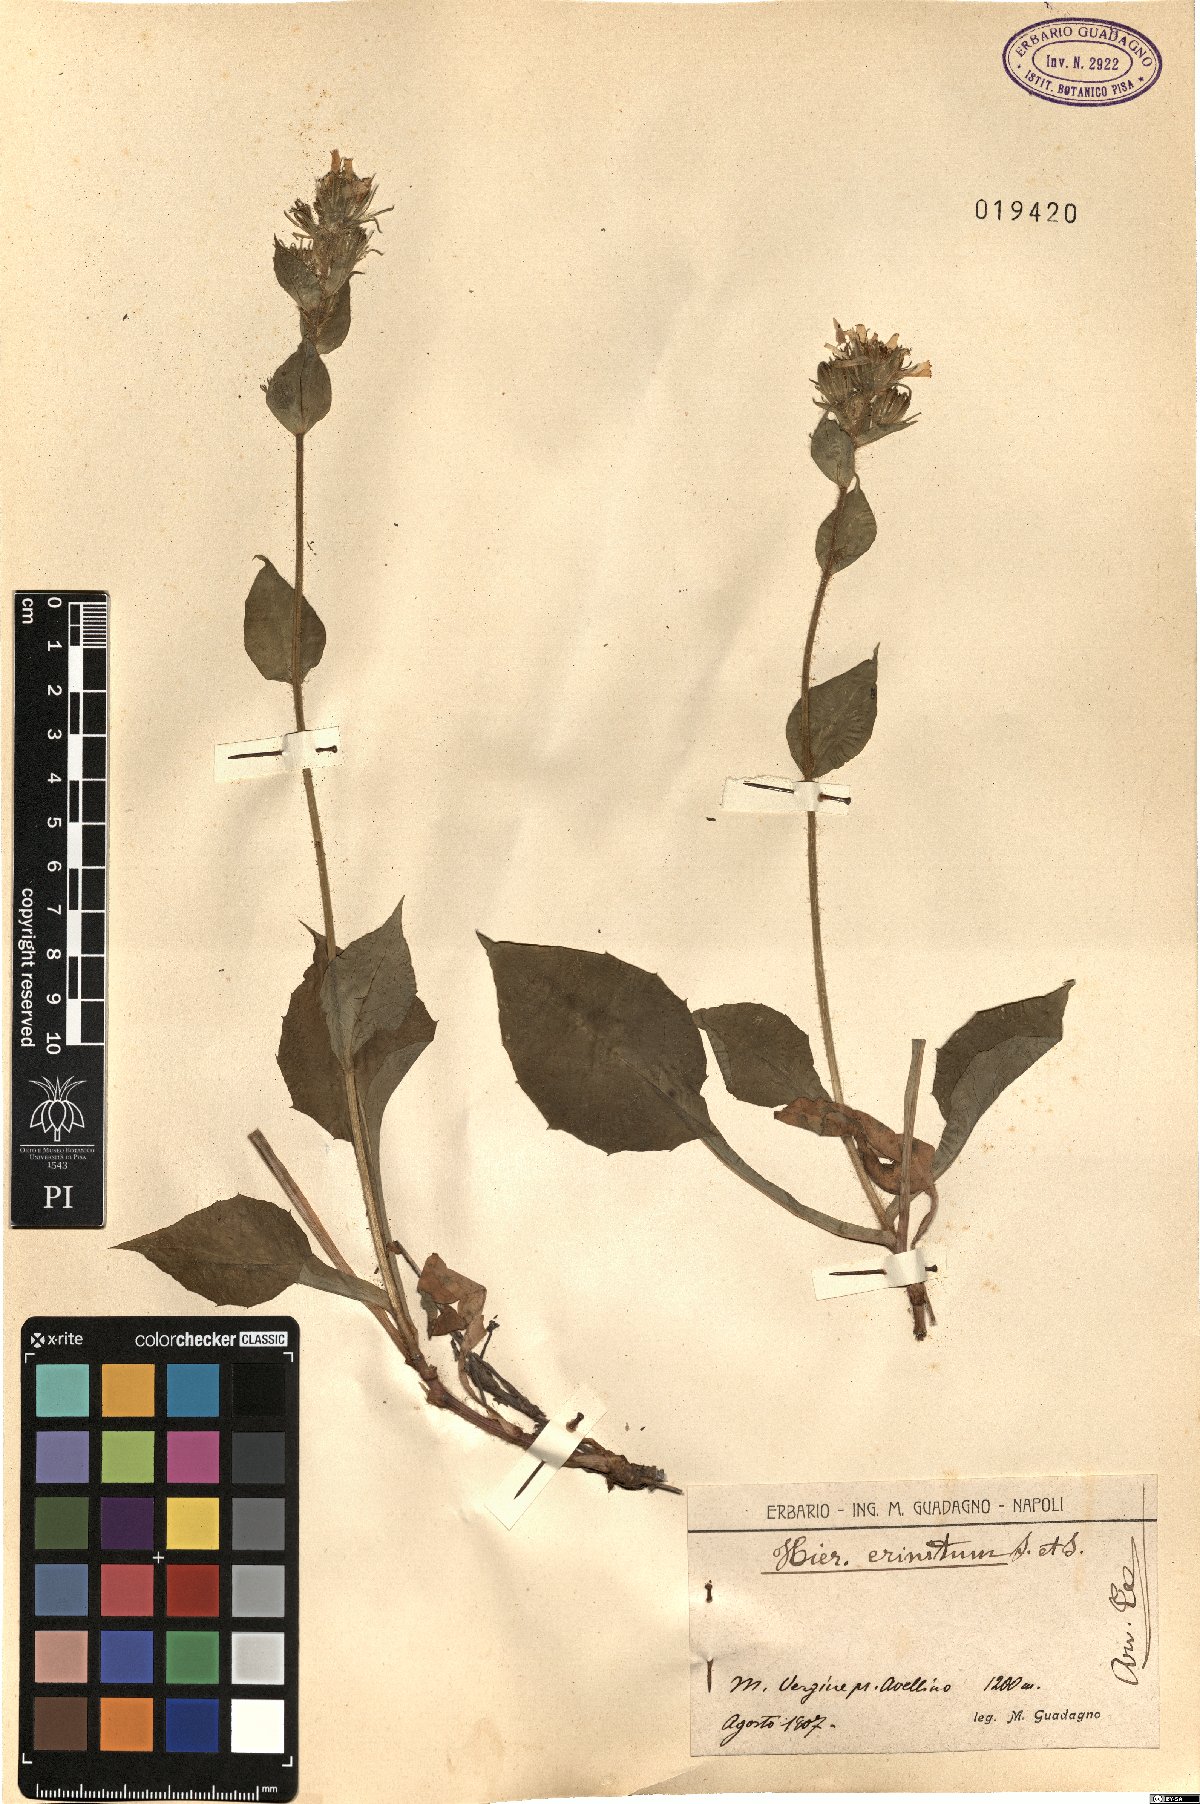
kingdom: Plantae
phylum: Tracheophyta
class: Magnoliopsida
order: Asterales
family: Asteraceae
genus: Hieracium
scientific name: Hieracium racemosum
